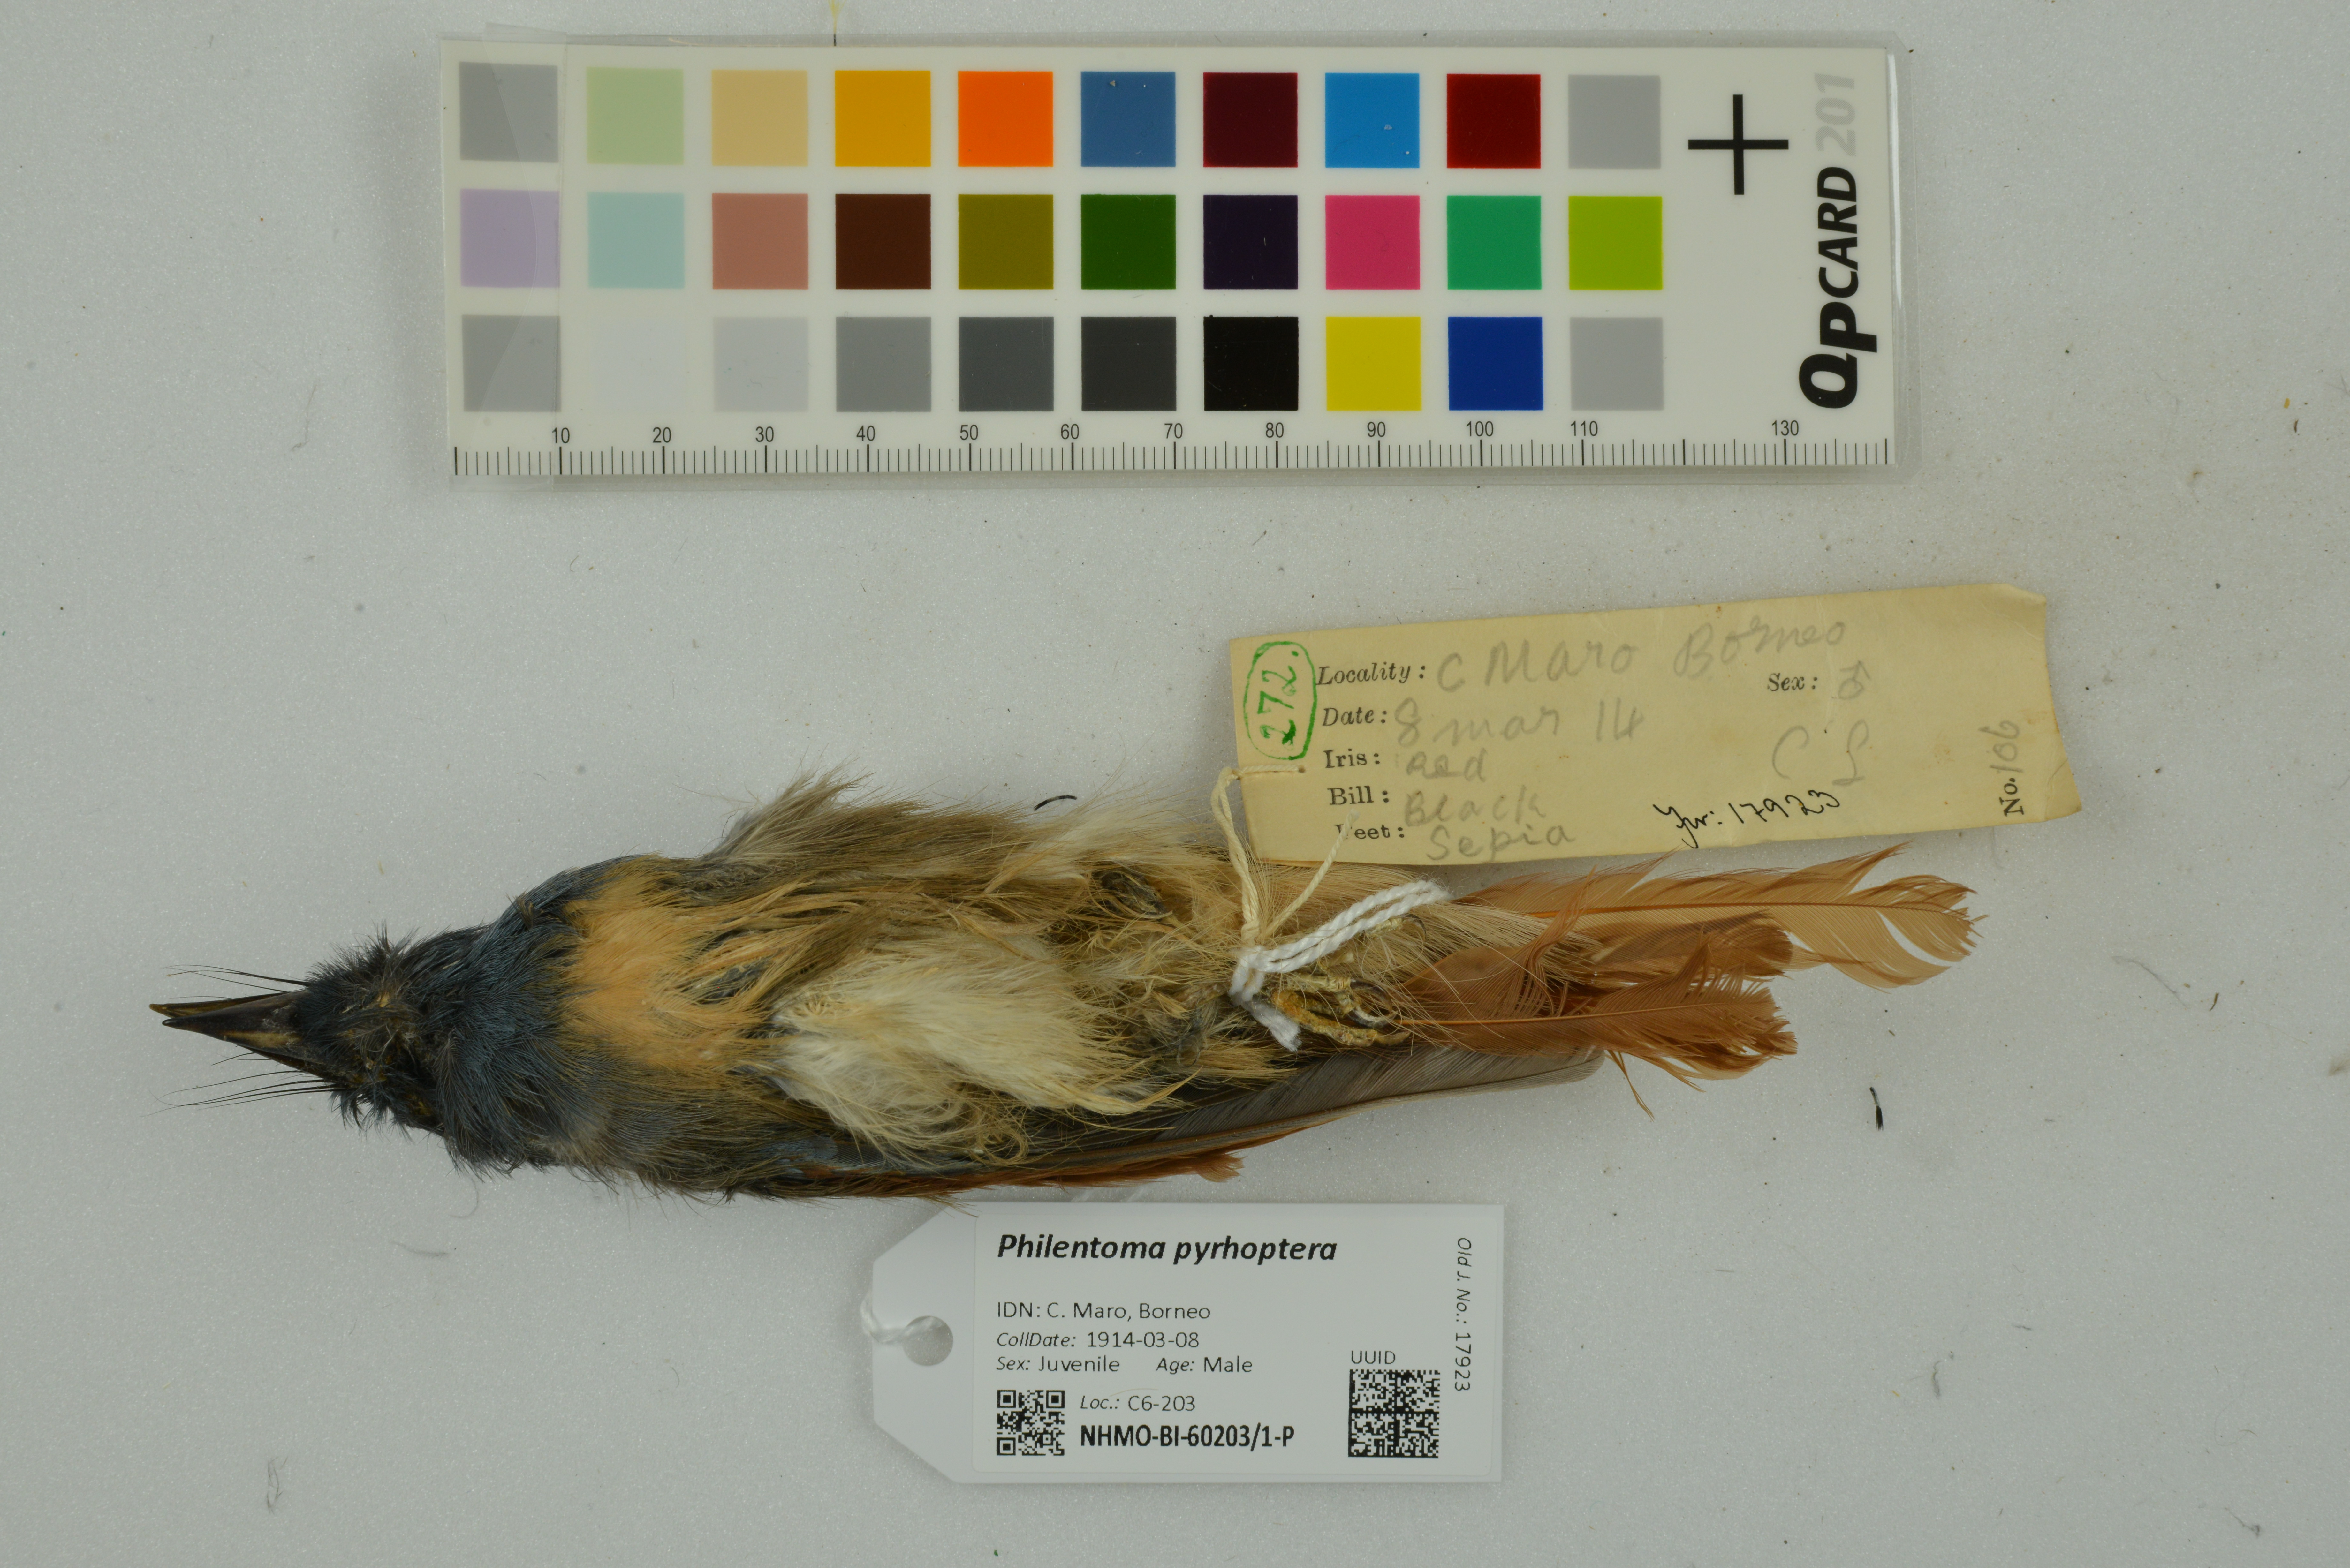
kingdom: Animalia
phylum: Chordata
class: Aves
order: Passeriformes
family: Tephrodornithidae
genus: Philentoma
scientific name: Philentoma pyrhoptera
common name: Rufous-winged philentoma
